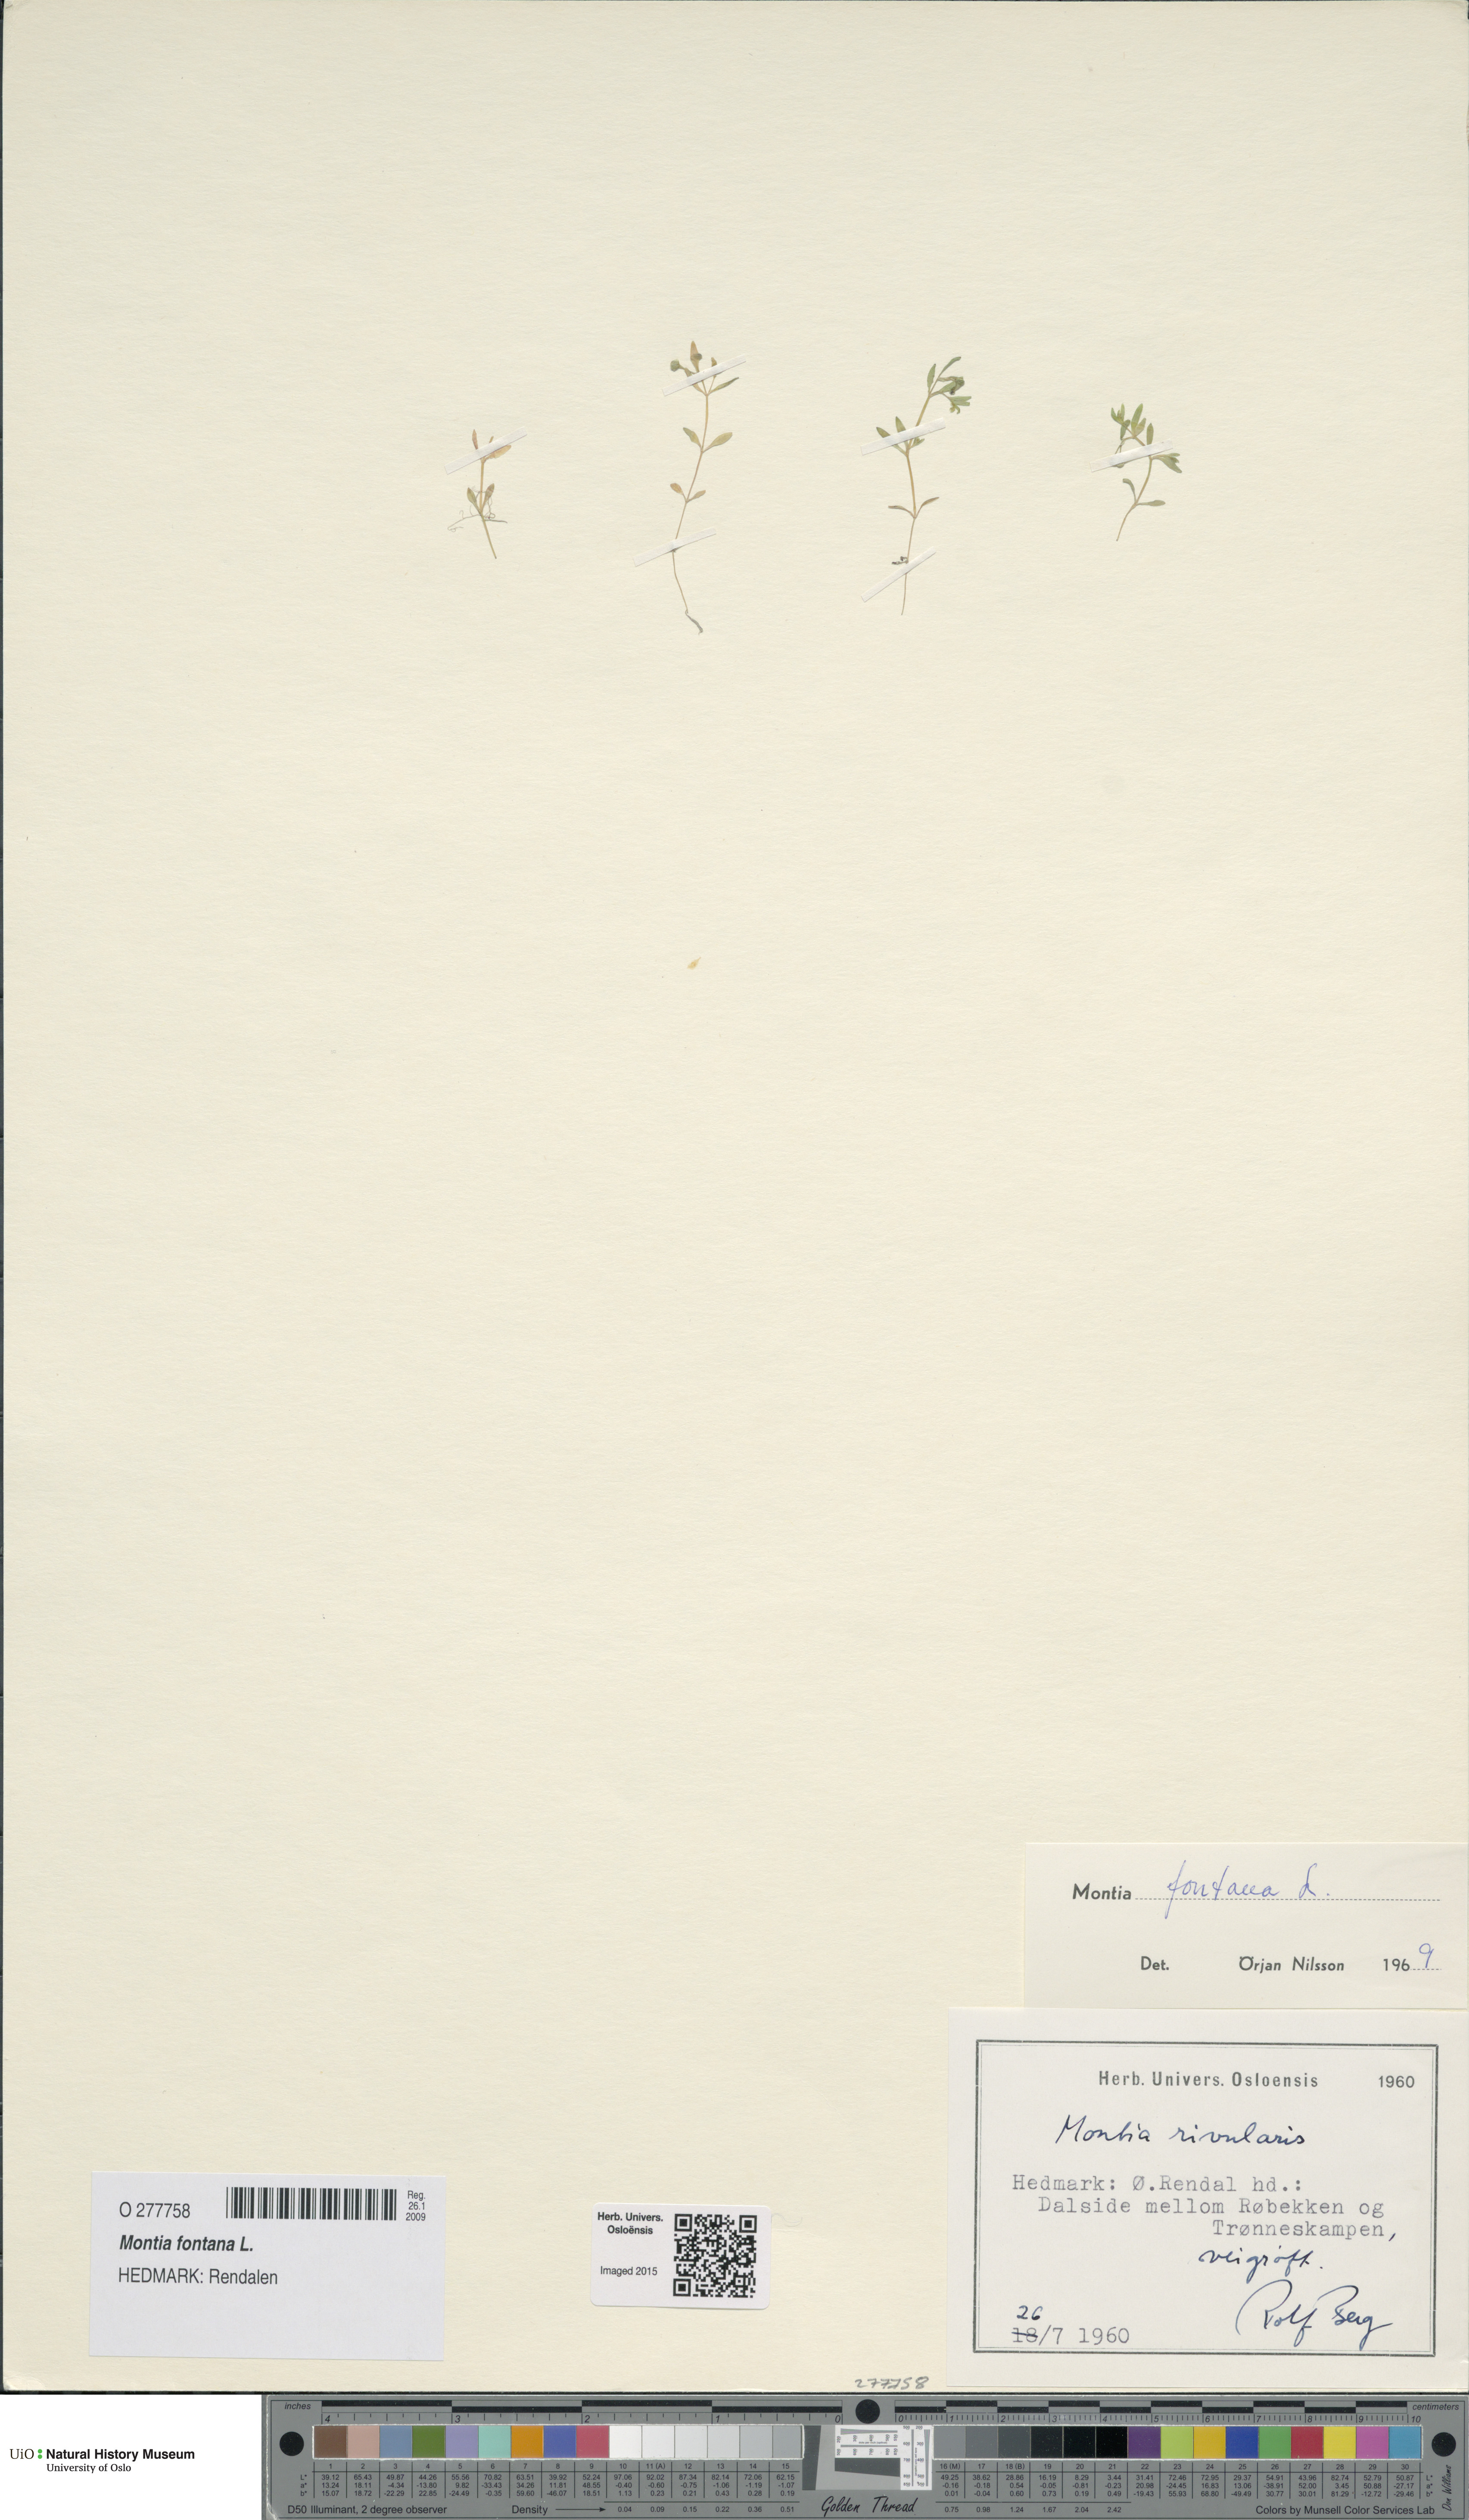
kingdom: Plantae
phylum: Tracheophyta
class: Magnoliopsida
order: Caryophyllales
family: Montiaceae
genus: Montia
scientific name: Montia fontana
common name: Blinks
